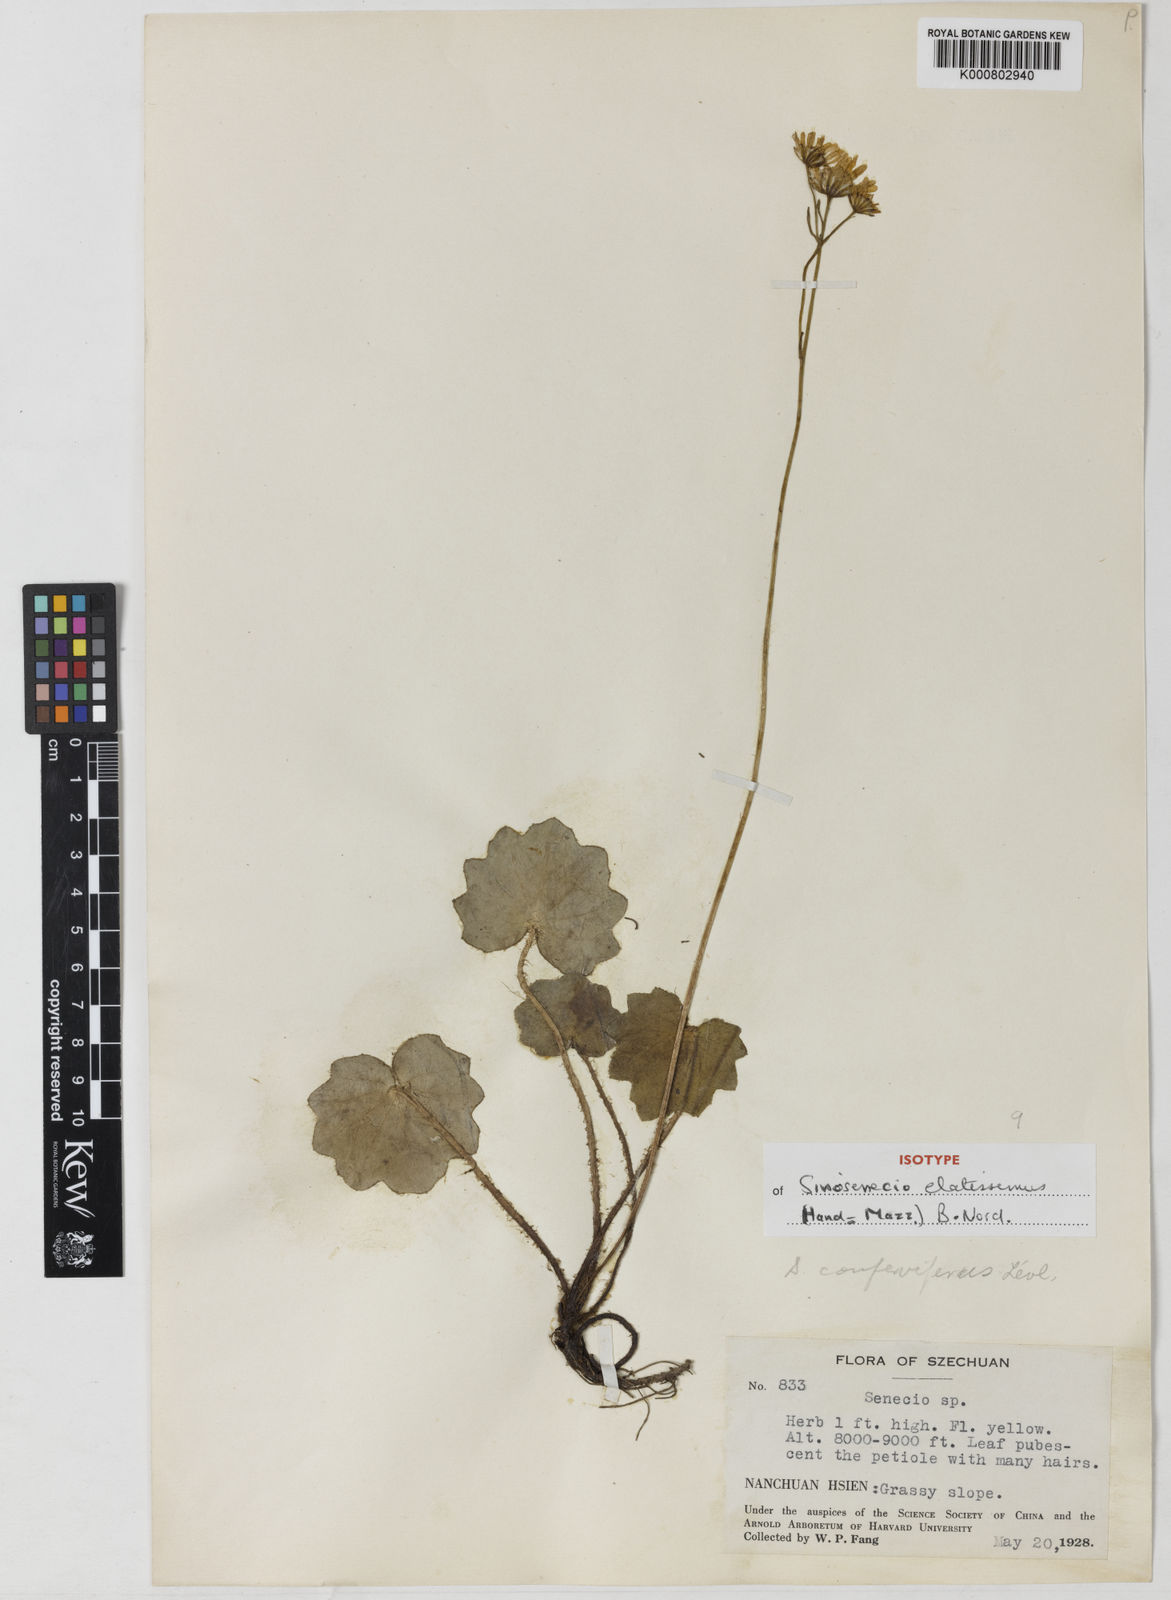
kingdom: Plantae
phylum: Tracheophyta
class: Magnoliopsida
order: Asterales
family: Asteraceae
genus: Sinosenecio
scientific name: Sinosenecio bodinieri
